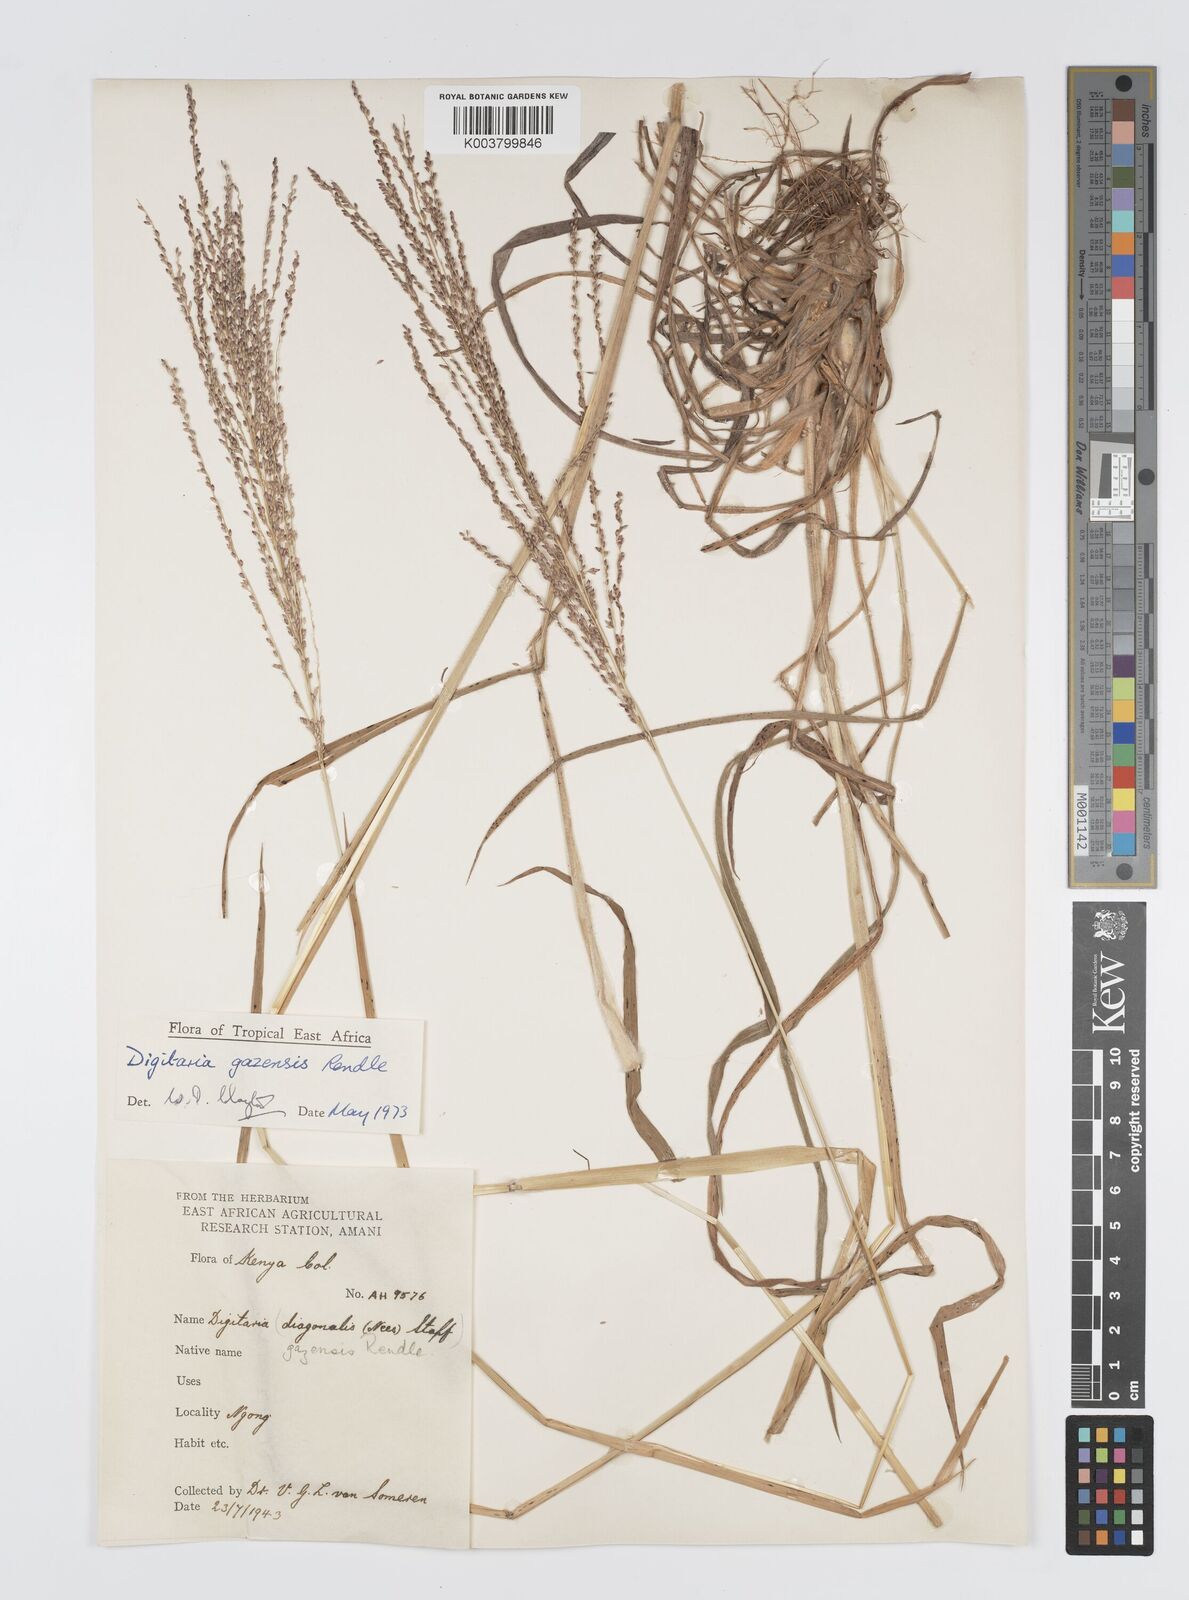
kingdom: Plantae
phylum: Tracheophyta
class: Liliopsida
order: Poales
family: Poaceae
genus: Digitaria
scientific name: Digitaria gazensis
